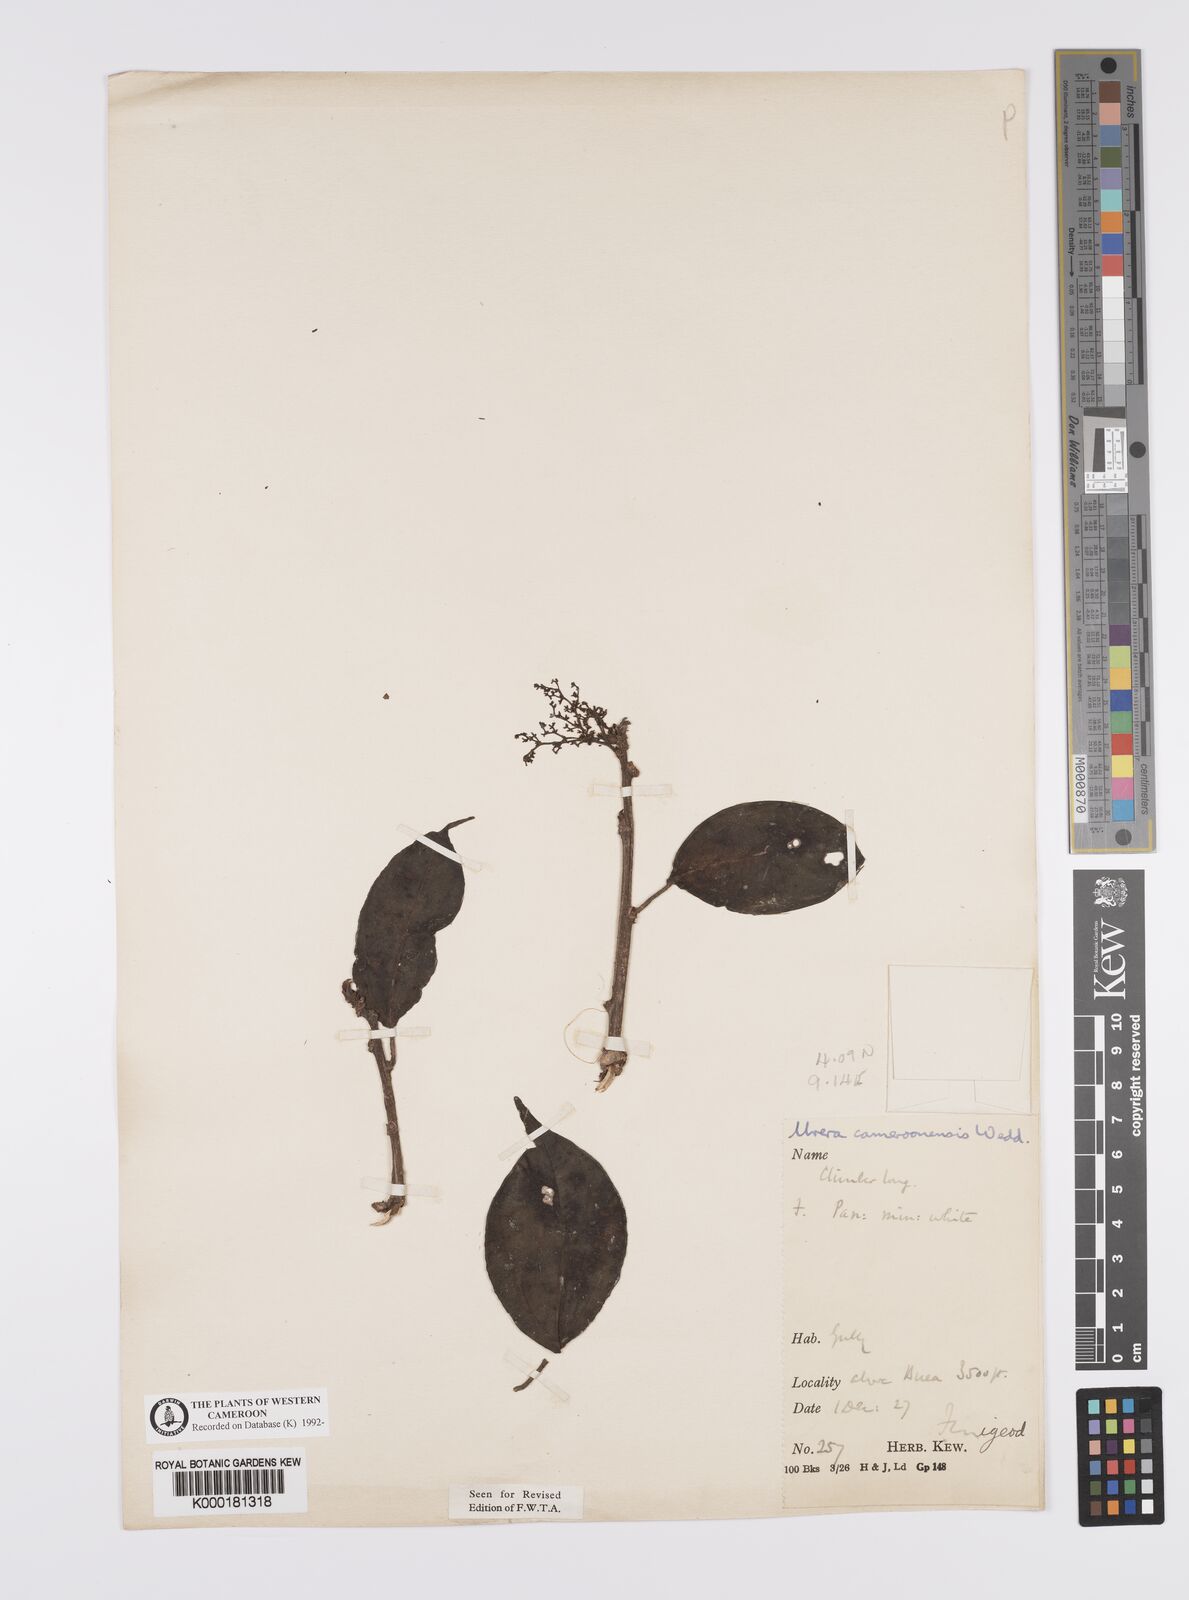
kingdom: Plantae
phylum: Tracheophyta
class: Magnoliopsida
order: Rosales
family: Urticaceae
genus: Scepocarpus
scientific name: Scepocarpus trinervis
